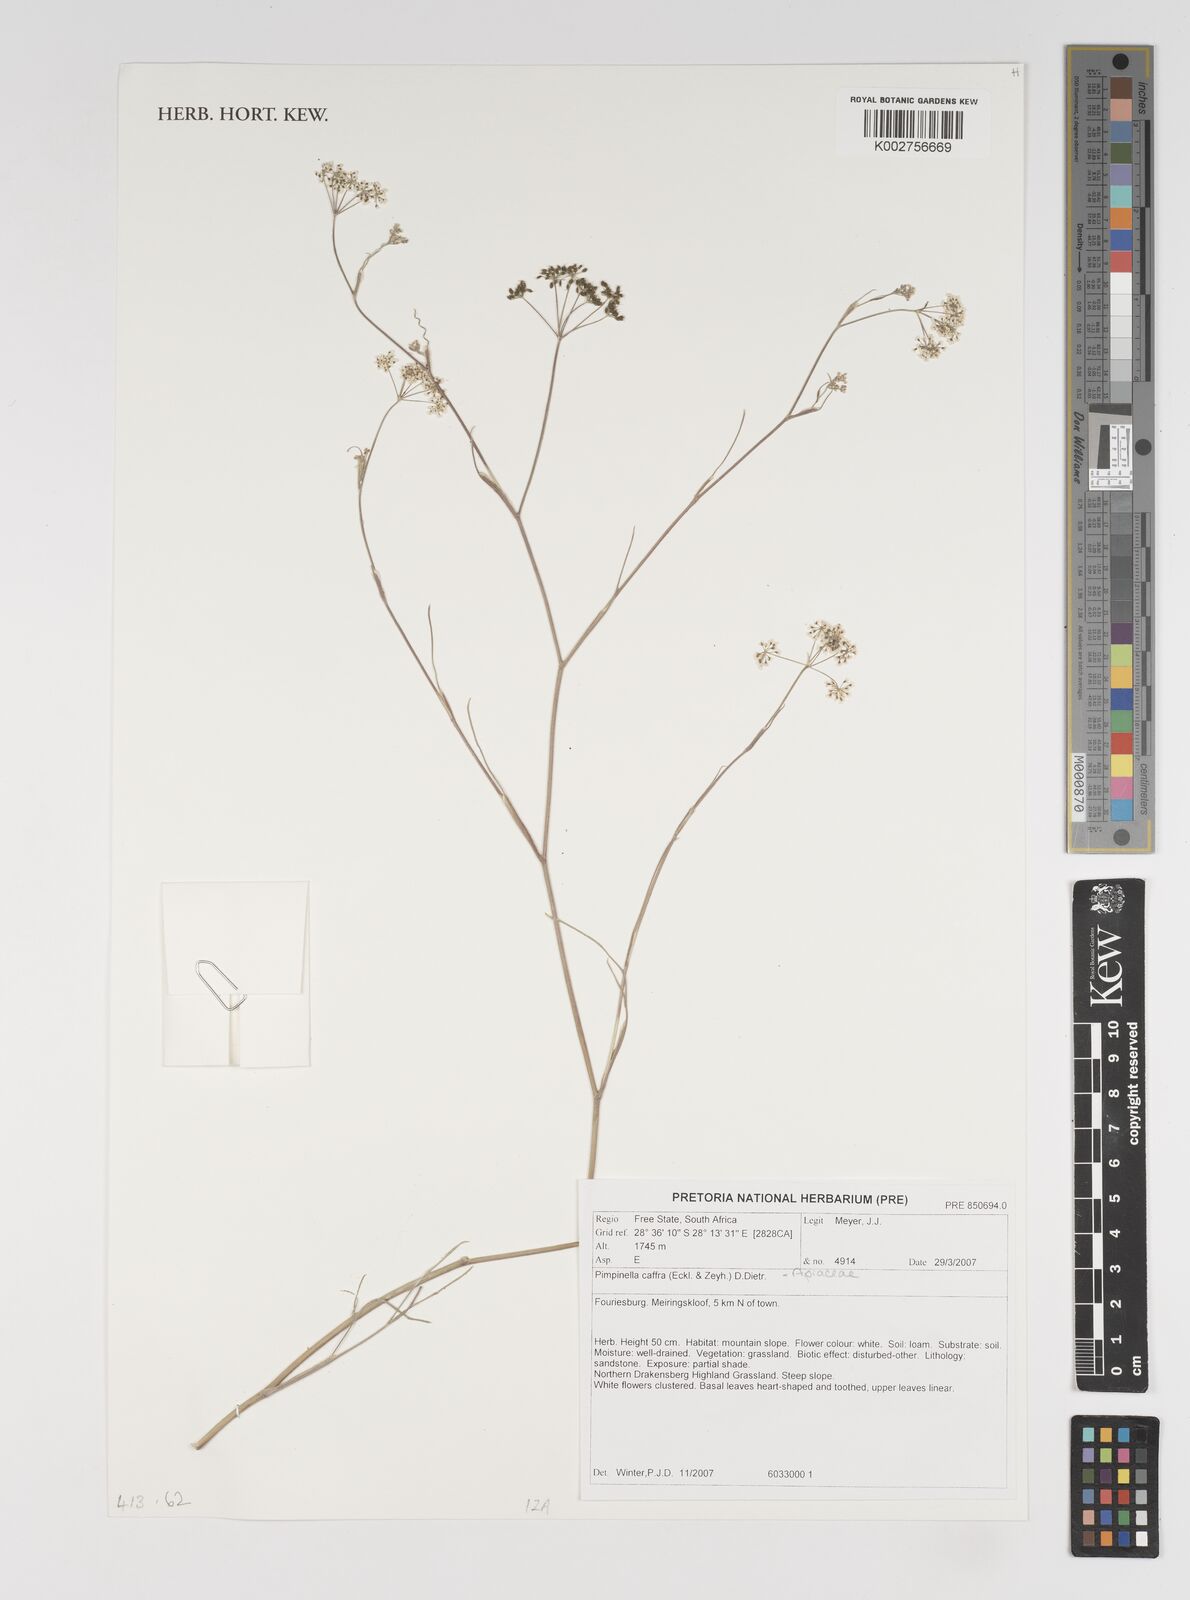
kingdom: Plantae
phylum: Tracheophyta
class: Magnoliopsida
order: Apiales
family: Apiaceae
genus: Pimpinella
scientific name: Pimpinella
